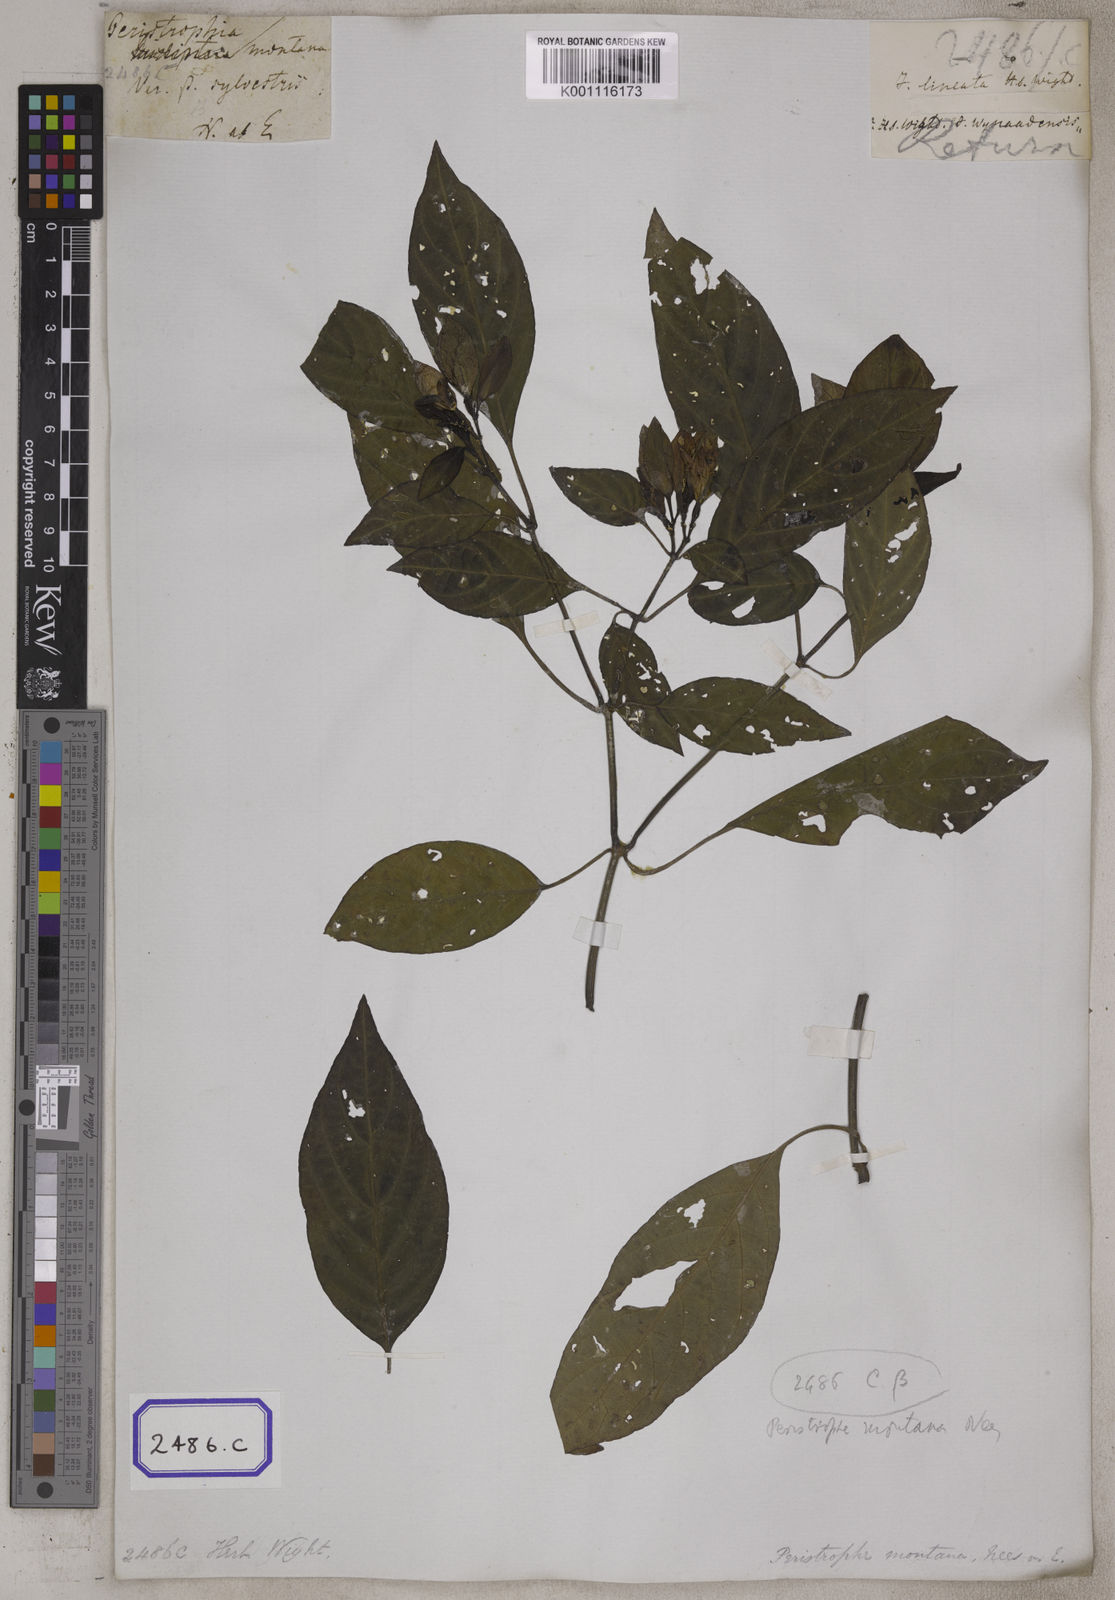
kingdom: Plantae
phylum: Tracheophyta
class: Magnoliopsida
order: Lamiales
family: Acanthaceae
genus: Andrographis
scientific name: Andrographis lineata
